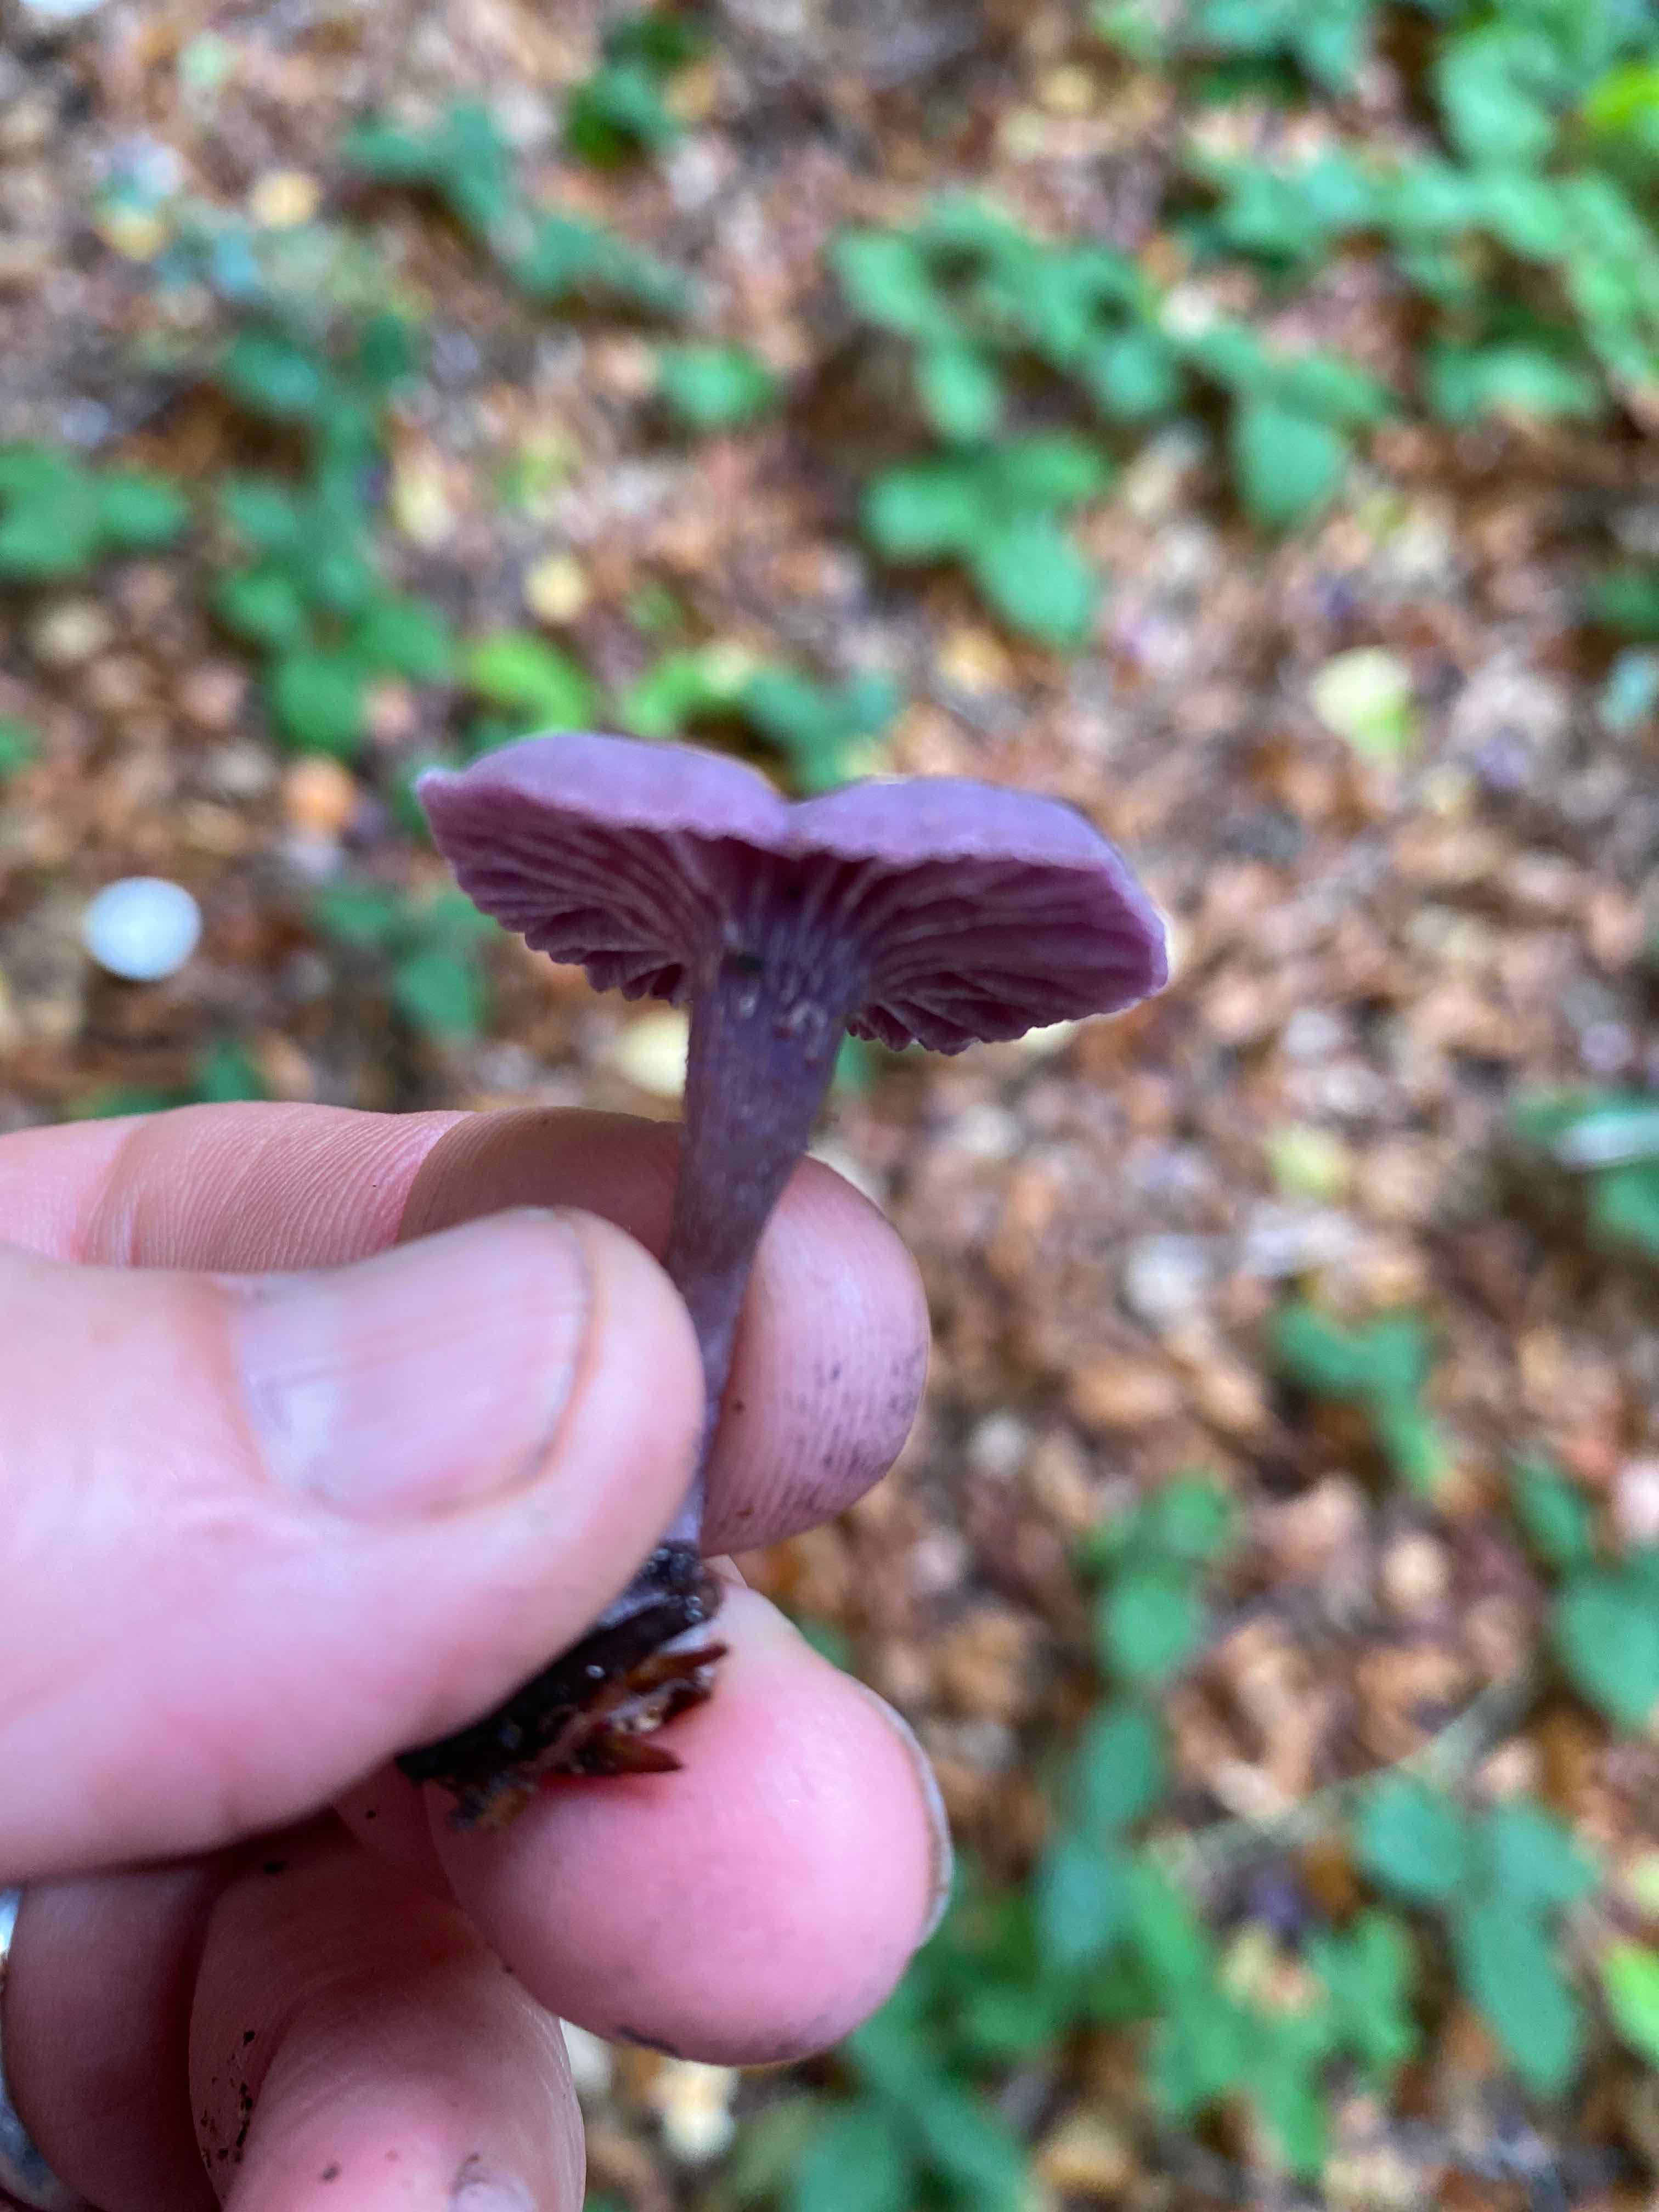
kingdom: Fungi
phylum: Basidiomycota
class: Agaricomycetes
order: Agaricales
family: Hydnangiaceae
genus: Laccaria
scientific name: Laccaria amethystina
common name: violet ametysthat
